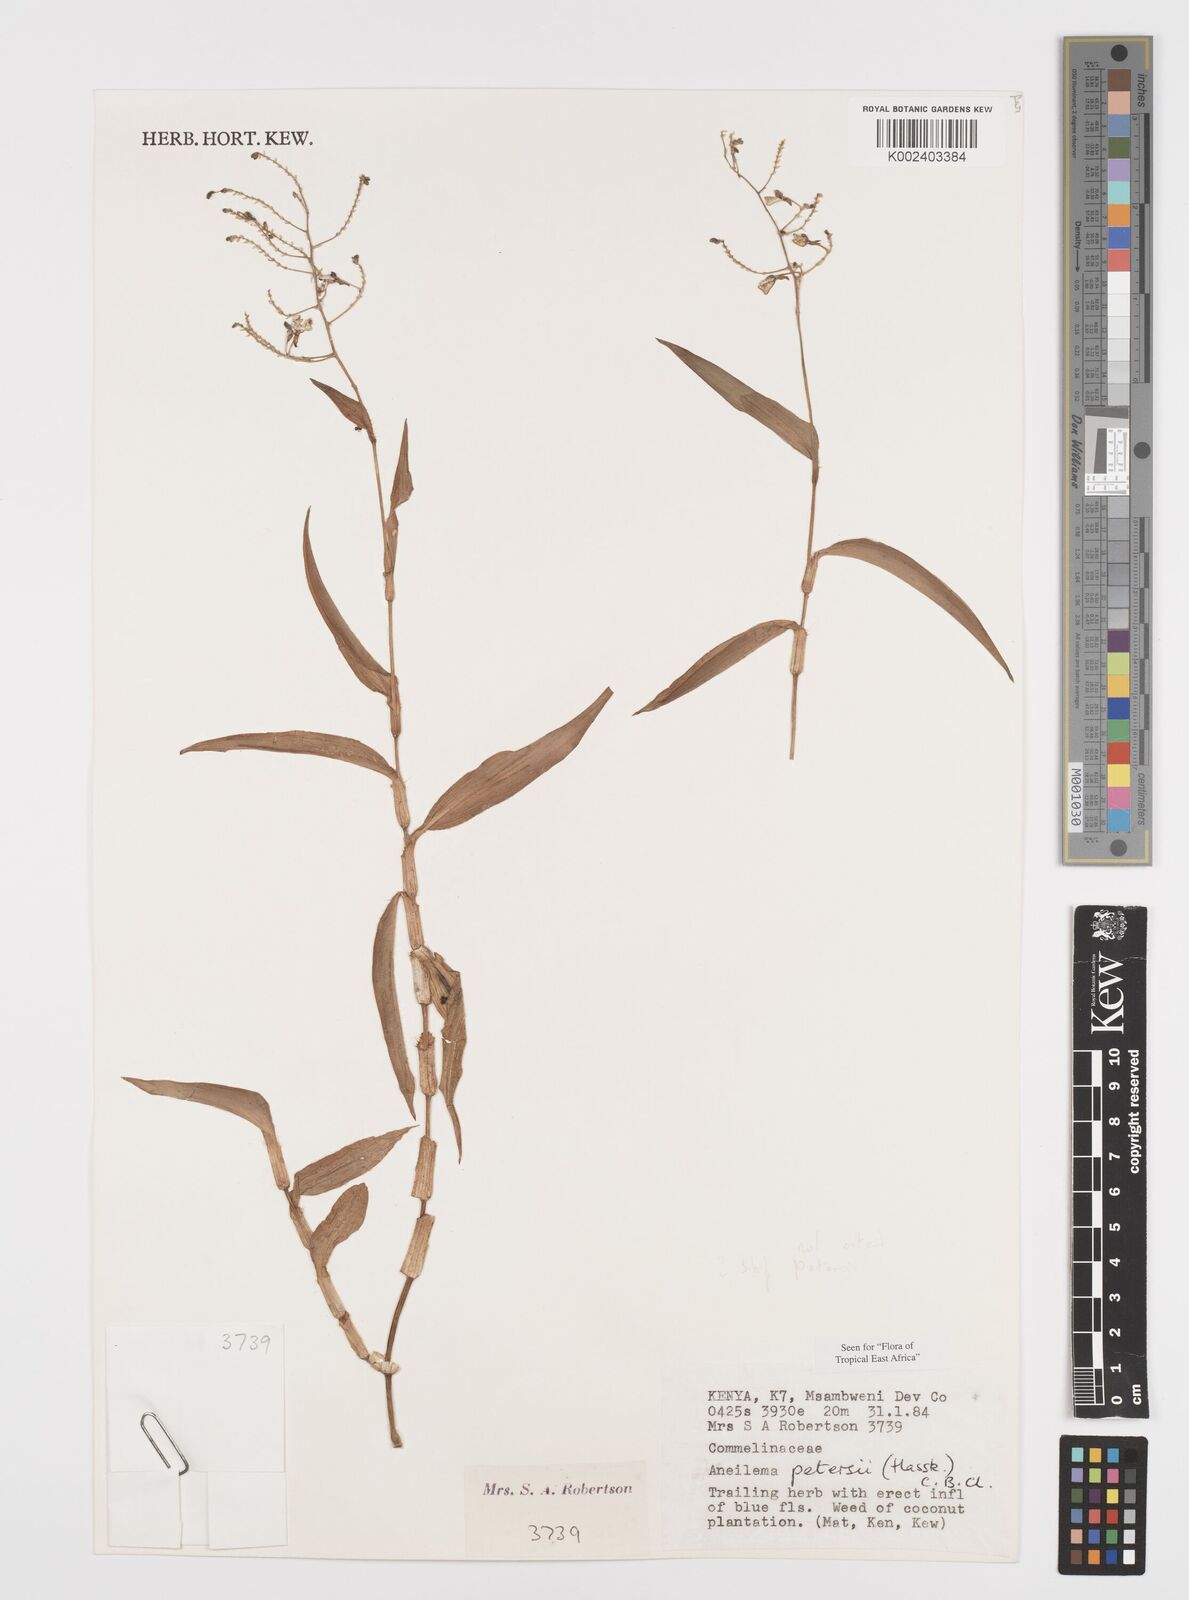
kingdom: Plantae
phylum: Tracheophyta
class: Liliopsida
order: Commelinales
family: Commelinaceae
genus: Aneilema
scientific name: Aneilema petersii
